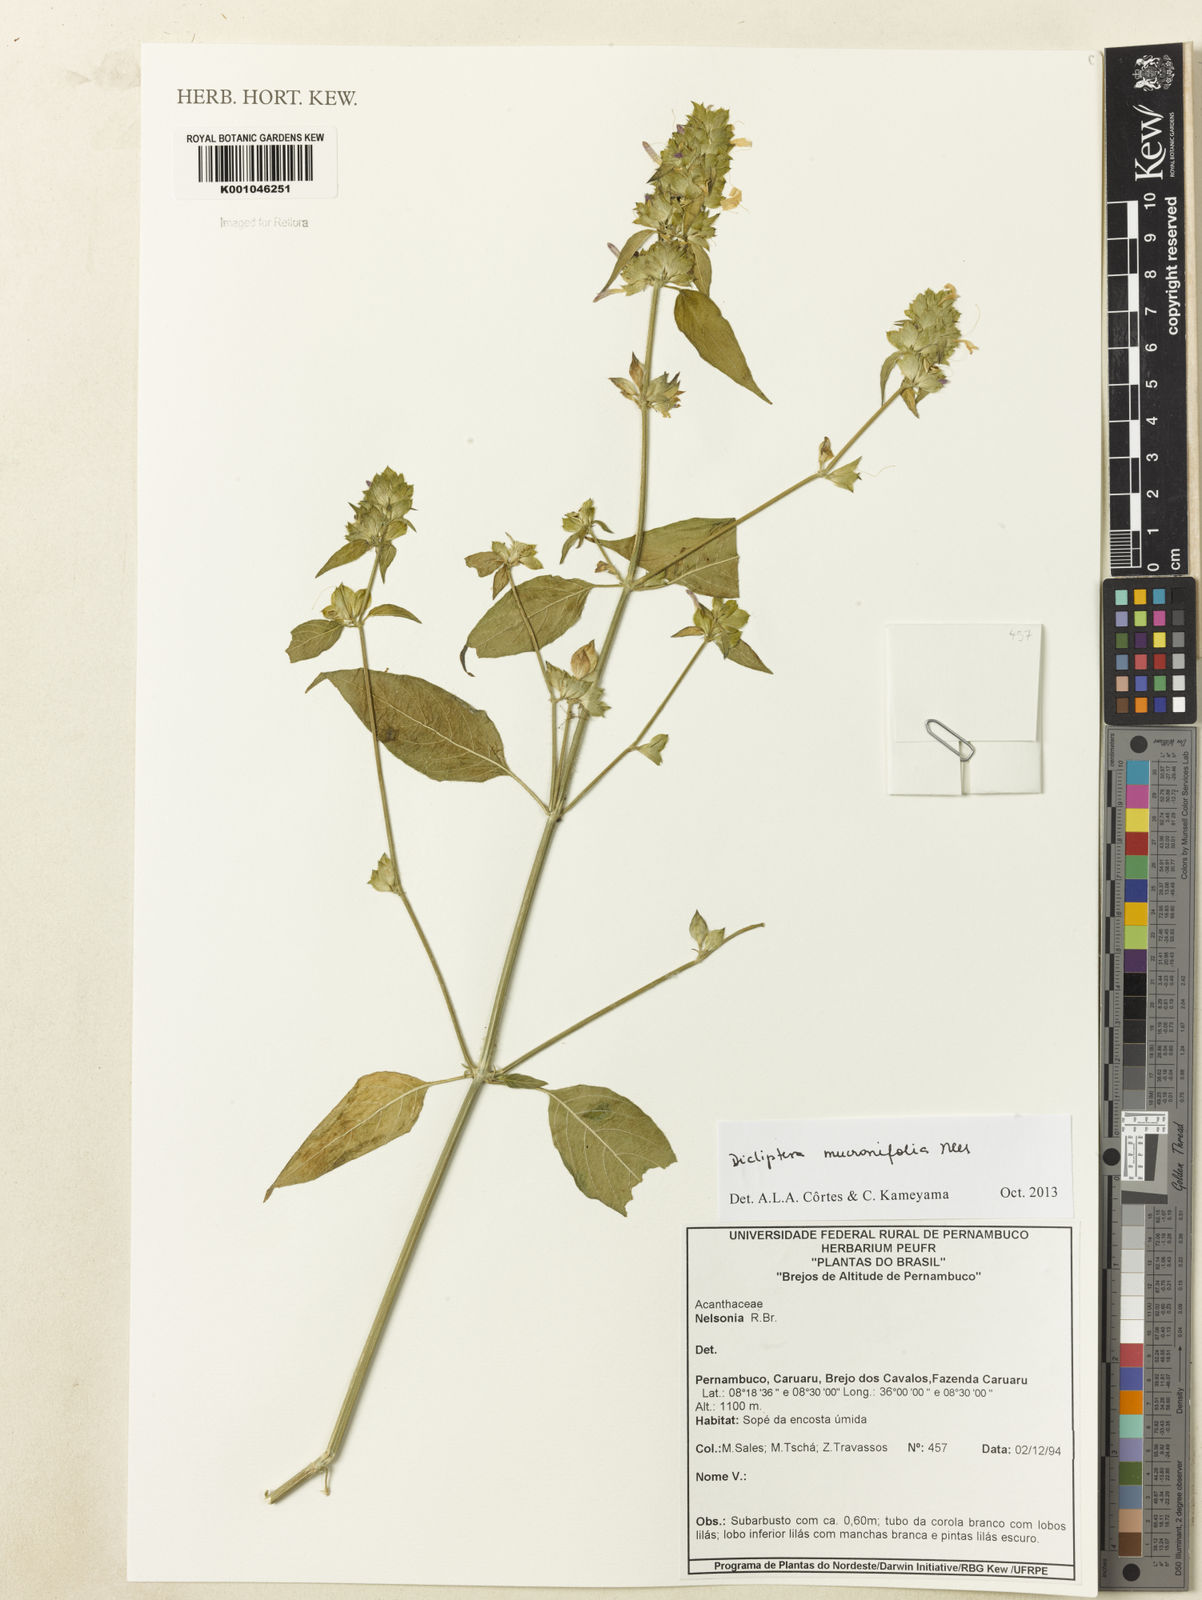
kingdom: Plantae
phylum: Tracheophyta
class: Magnoliopsida
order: Lamiales
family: Acanthaceae
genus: Dicliptera
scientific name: Dicliptera mucronifolia
